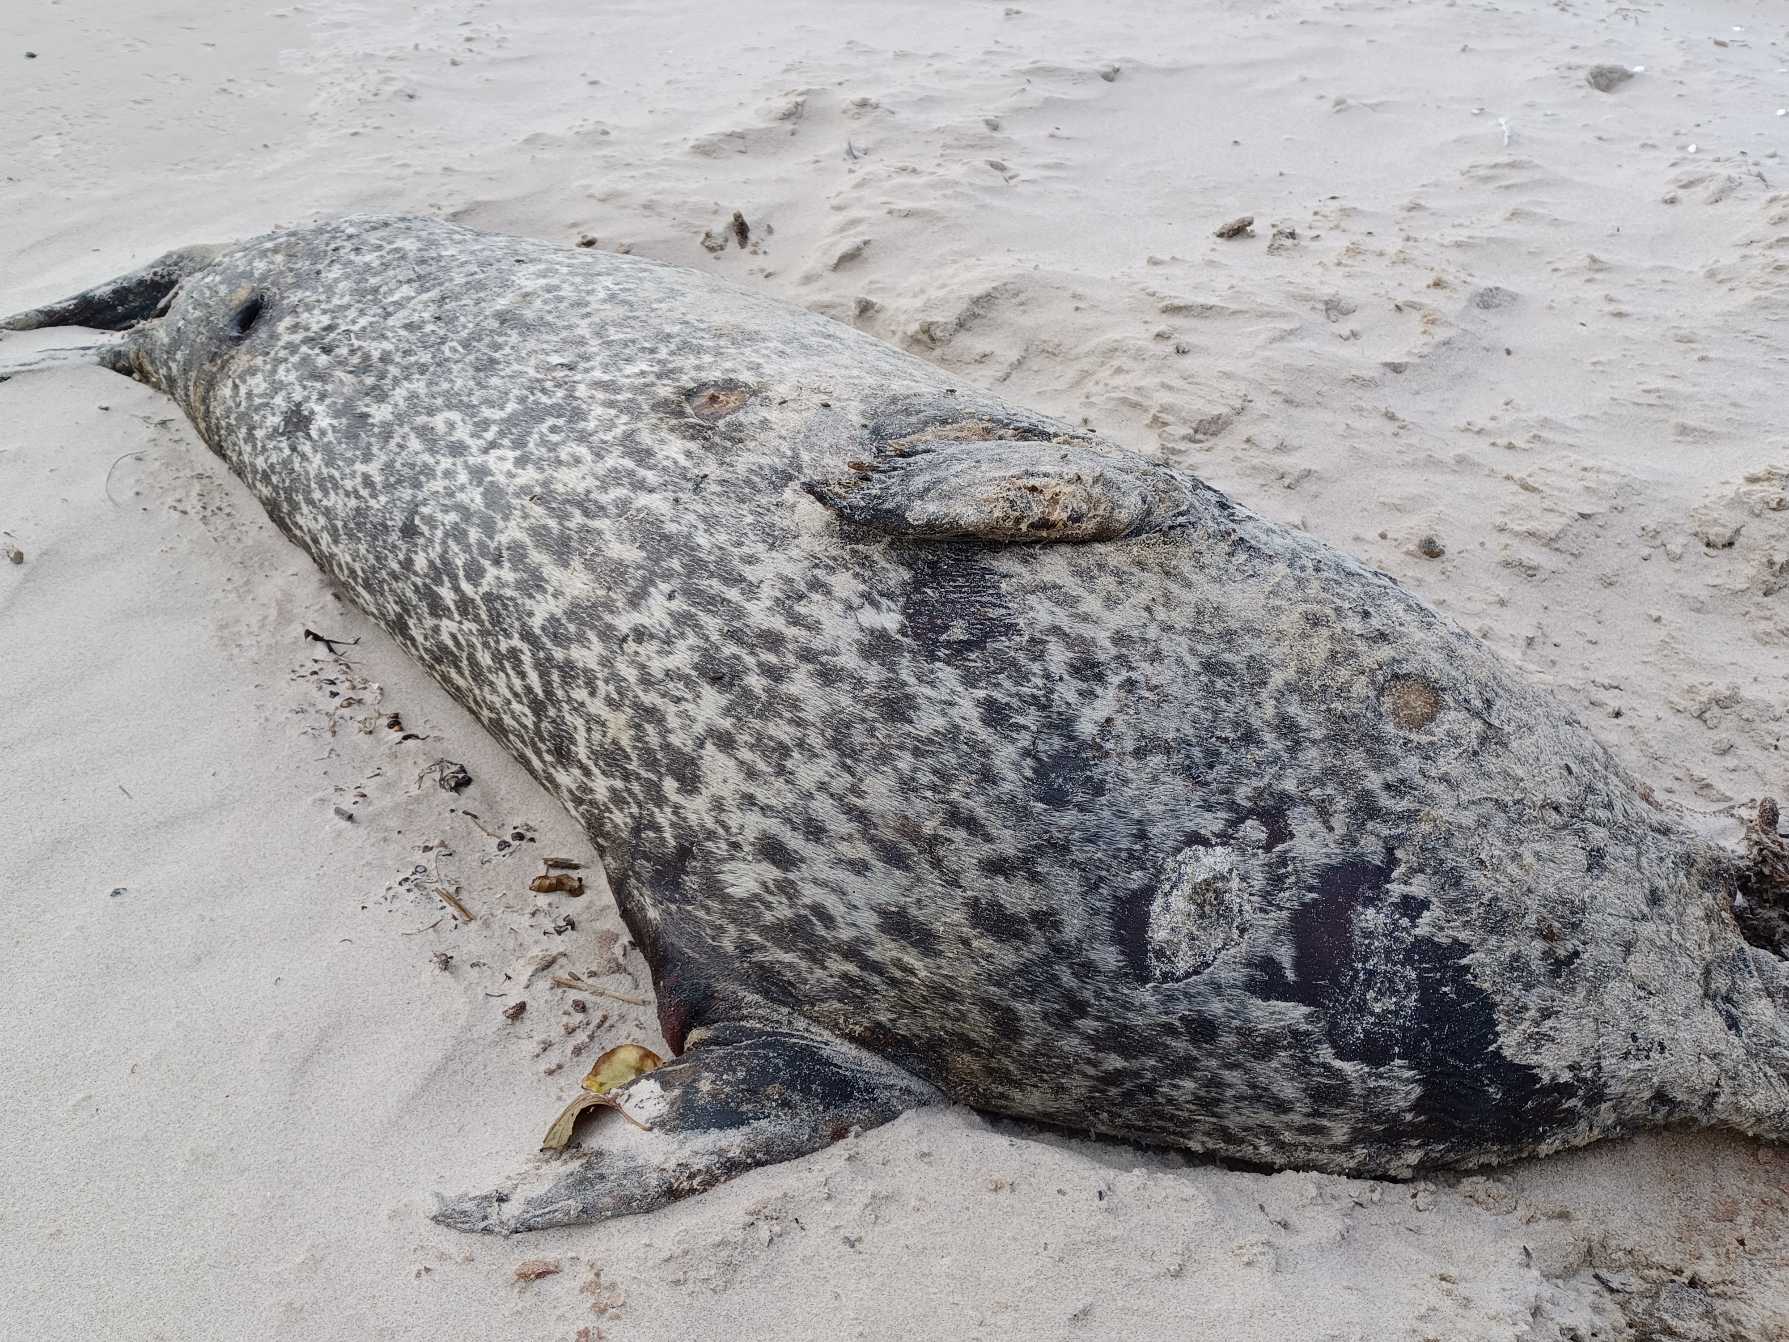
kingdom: Animalia
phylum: Chordata
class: Mammalia
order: Carnivora
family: Phocidae
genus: Phoca
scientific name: Phoca vitulina
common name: Spættet sæl
